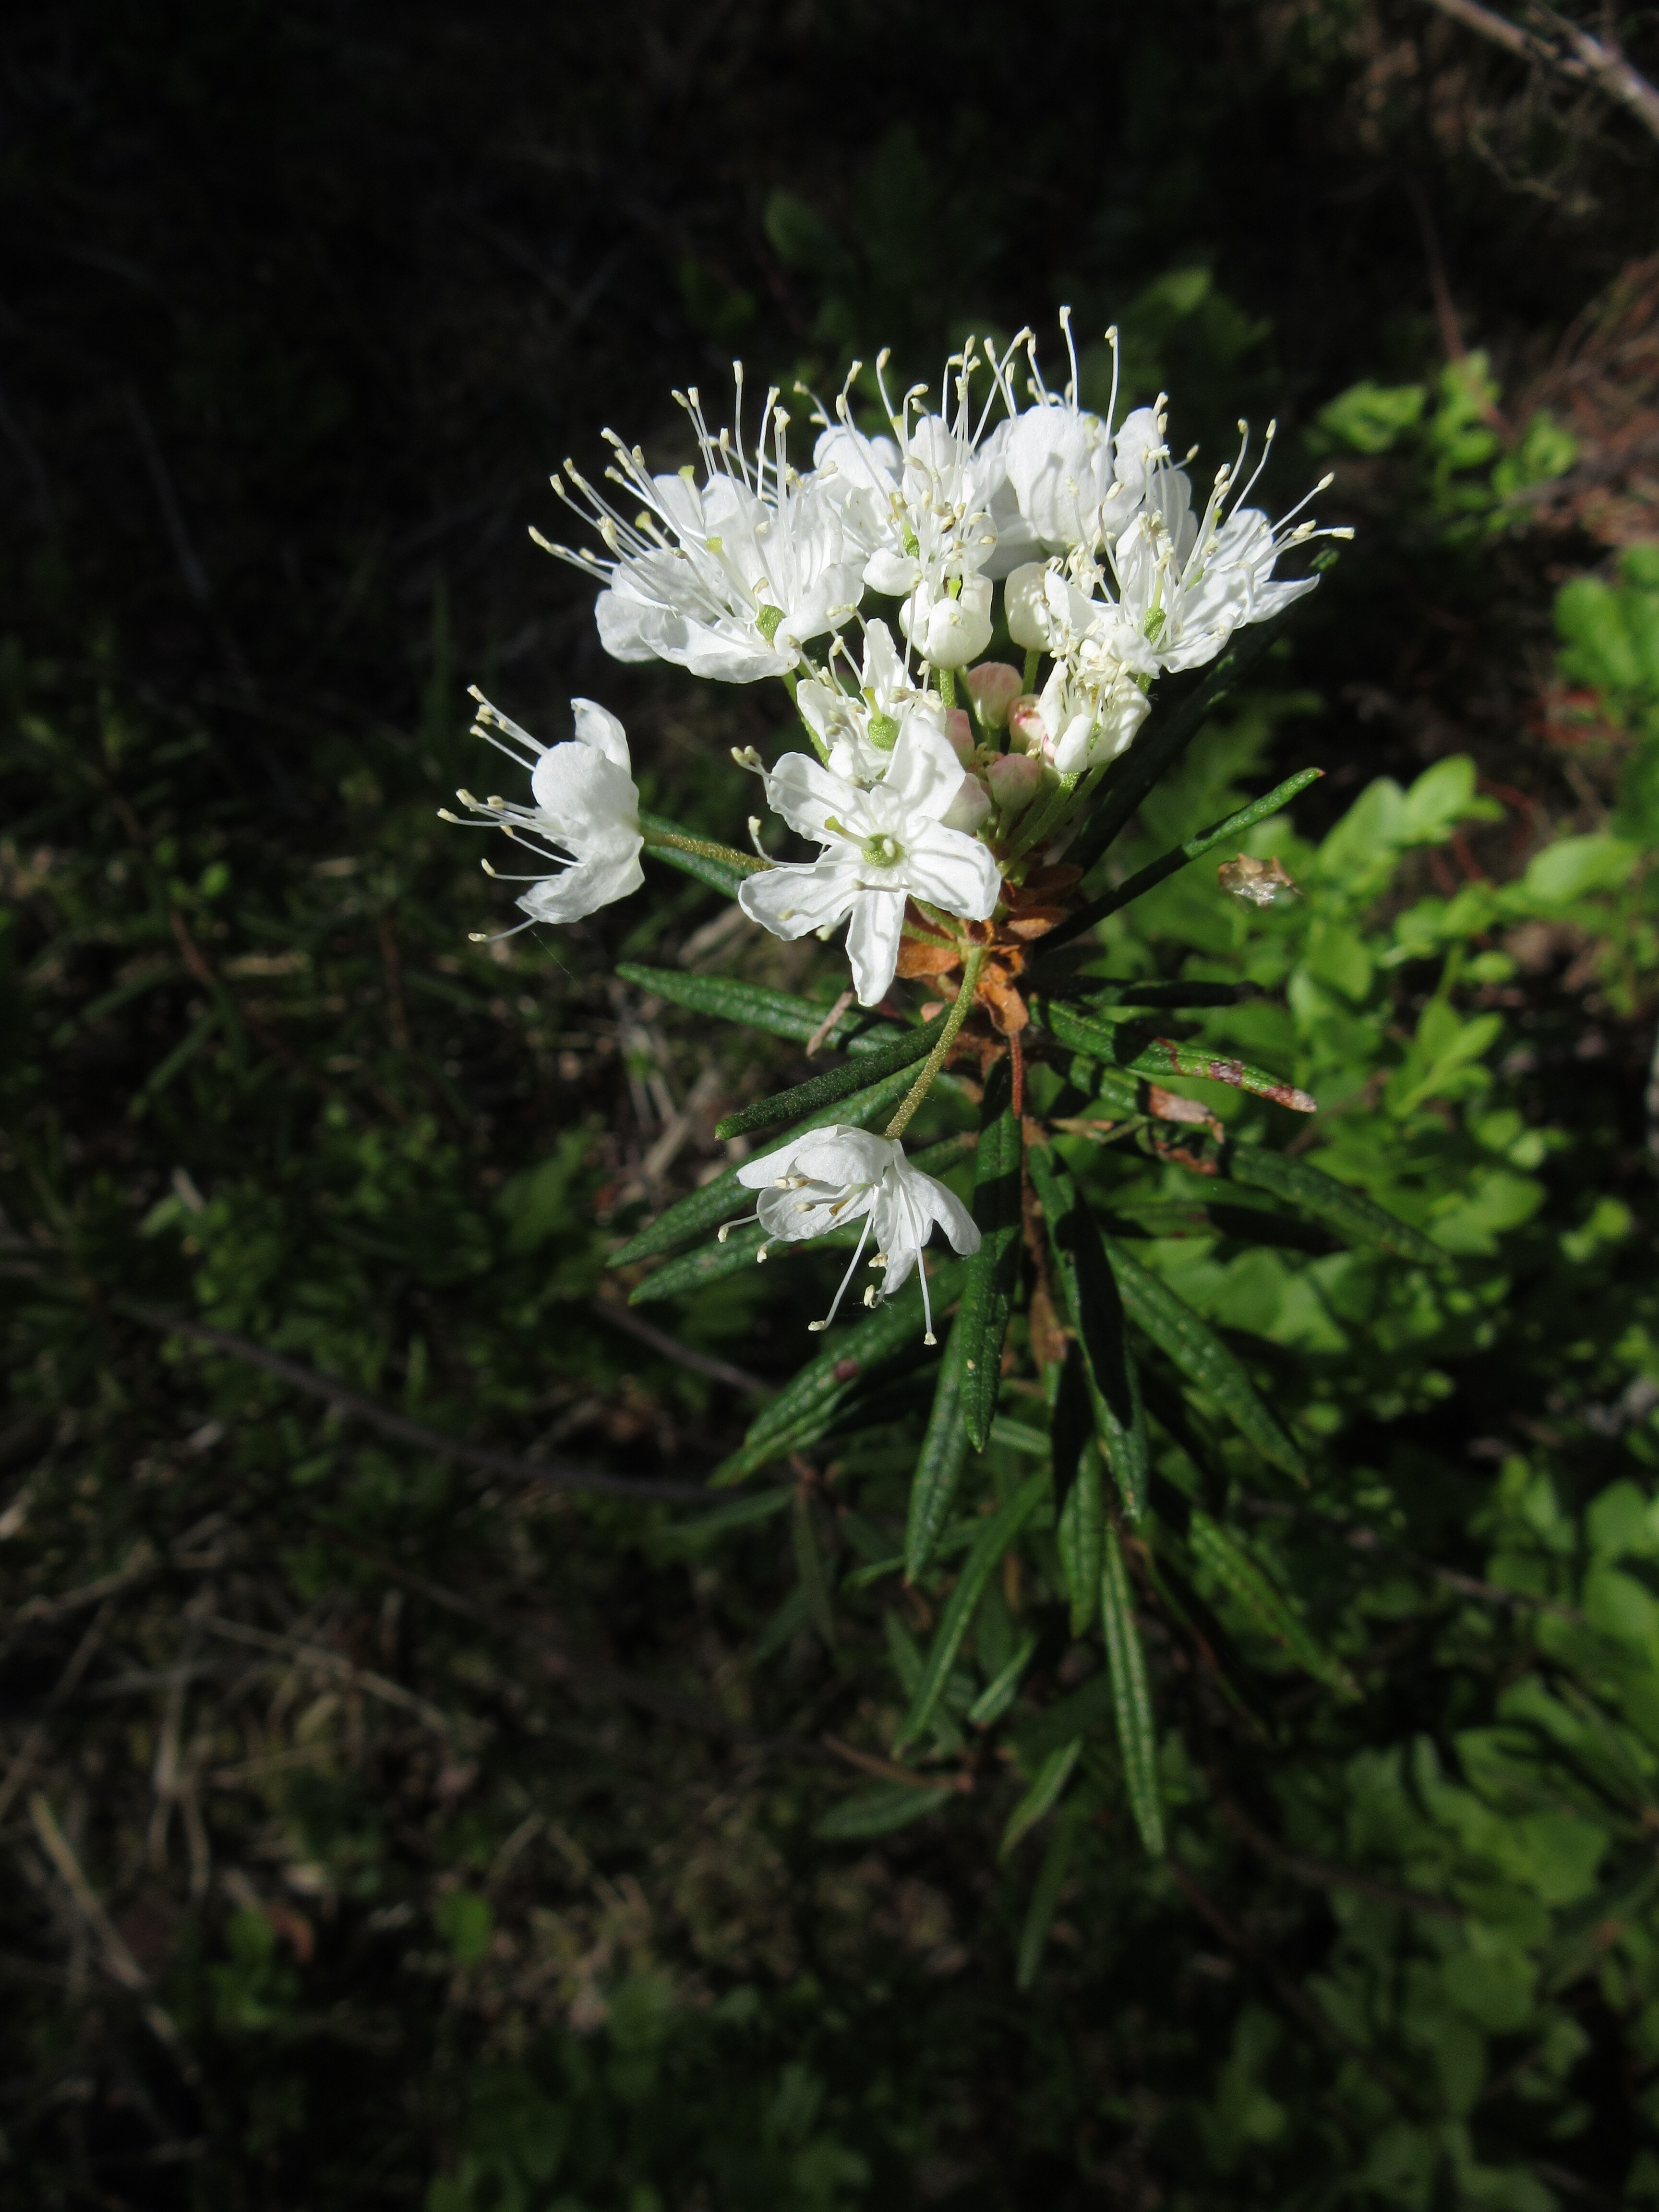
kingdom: Plantae
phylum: Tracheophyta
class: Magnoliopsida
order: Ericales
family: Ericaceae
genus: Rhododendron
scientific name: Rhododendron tomentosum
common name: Marsh labrador tea
